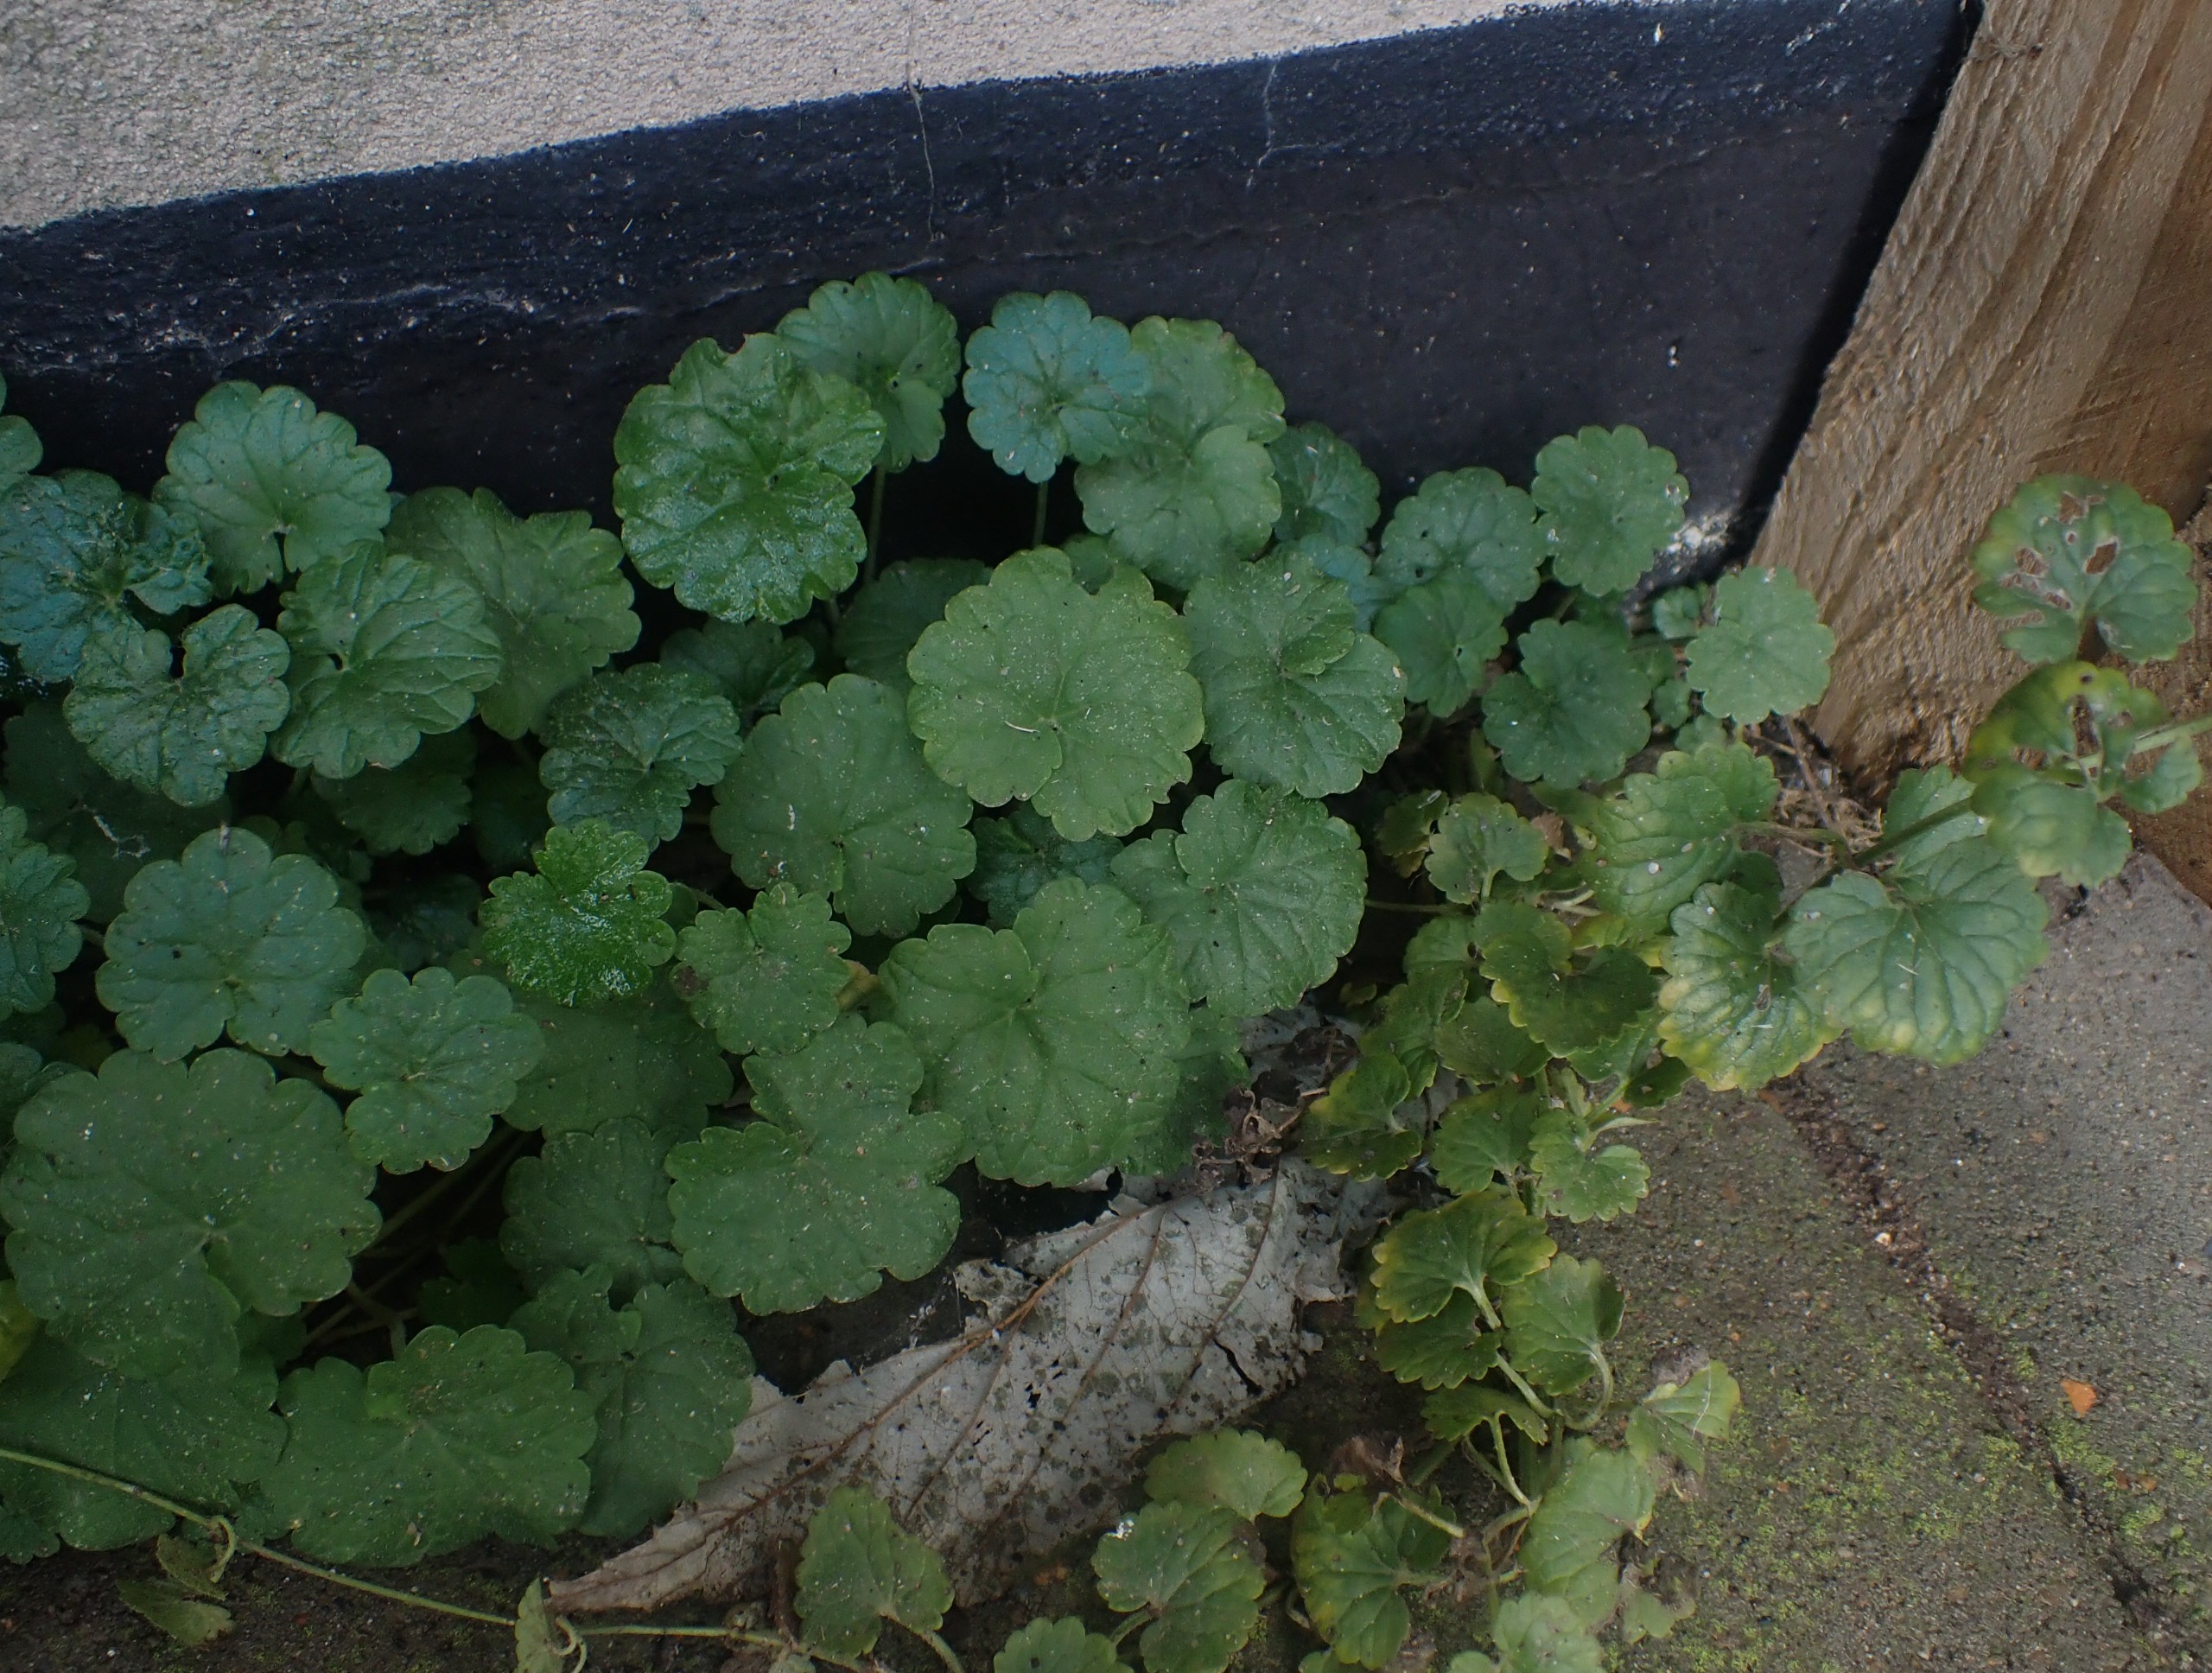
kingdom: Plantae
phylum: Tracheophyta
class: Magnoliopsida
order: Lamiales
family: Lamiaceae
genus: Glechoma
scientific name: Glechoma hederacea
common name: Korsknap
